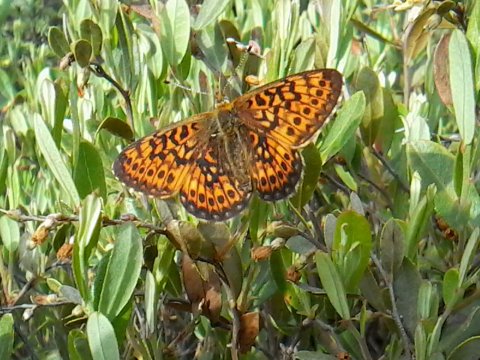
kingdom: Animalia
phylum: Arthropoda
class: Insecta
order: Lepidoptera
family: Nymphalidae
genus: Boloria
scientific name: Boloria eunomia
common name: Bog Fritillary
